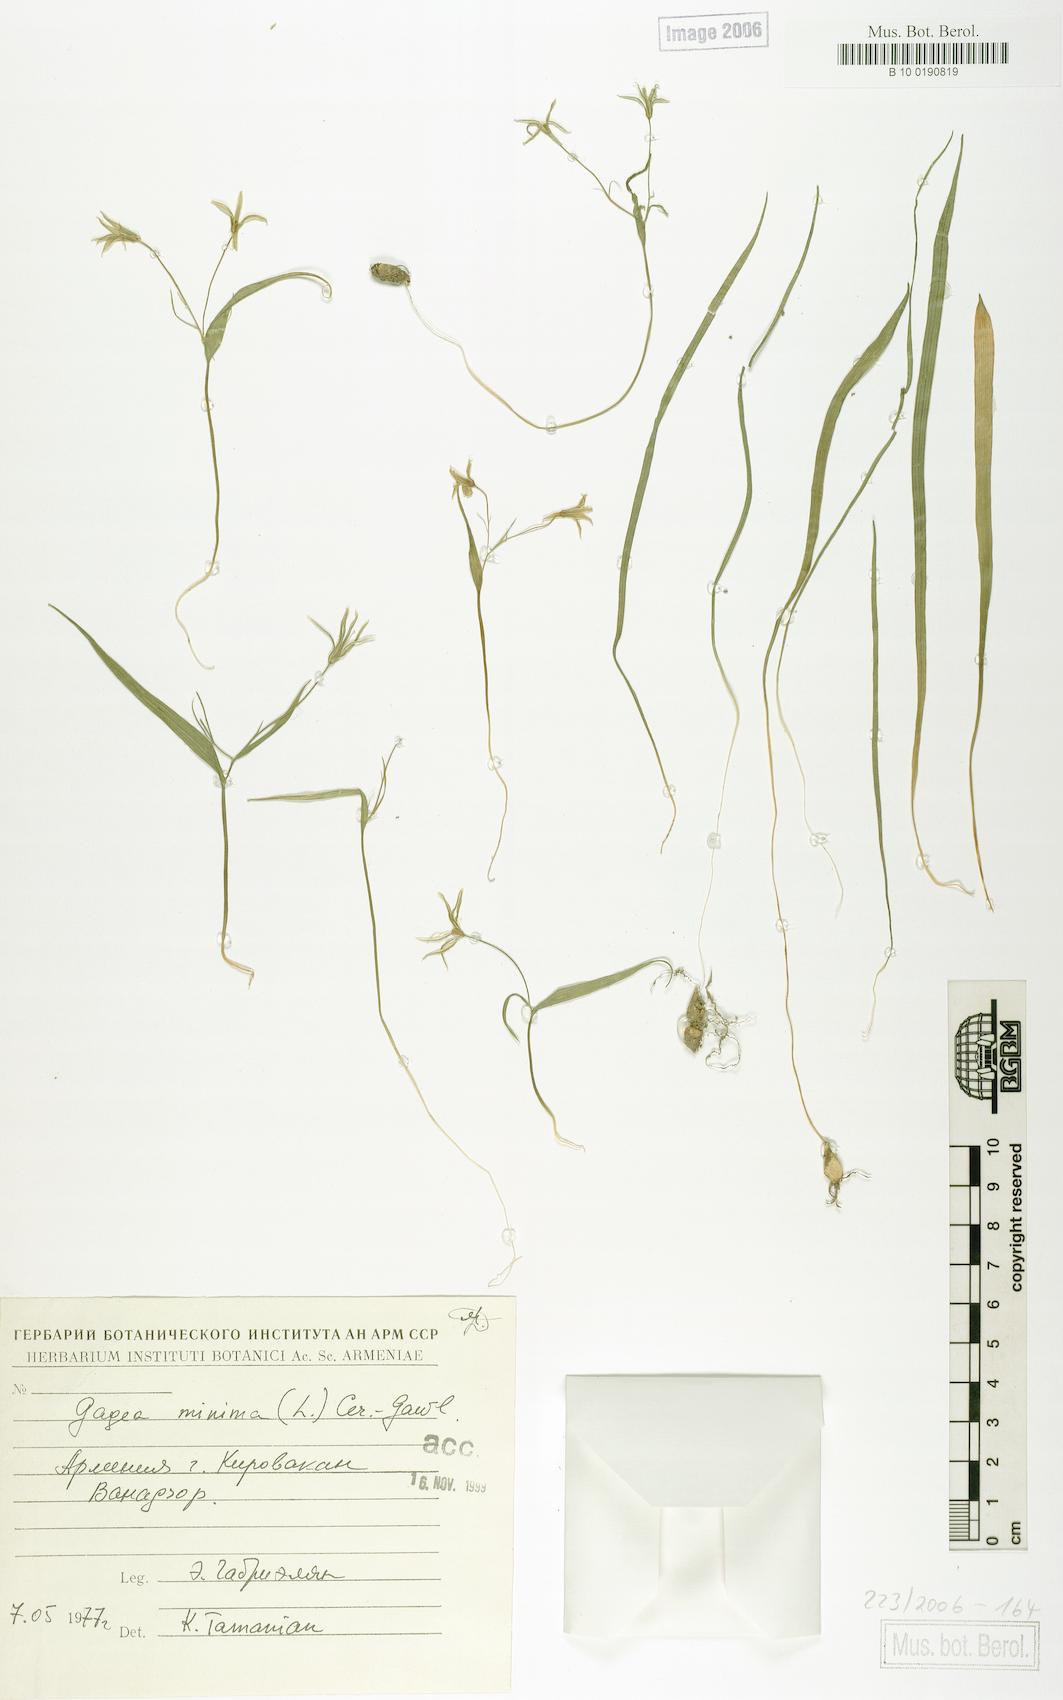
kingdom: Plantae
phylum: Tracheophyta
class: Liliopsida
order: Liliales
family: Liliaceae
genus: Gagea
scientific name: Gagea minima
